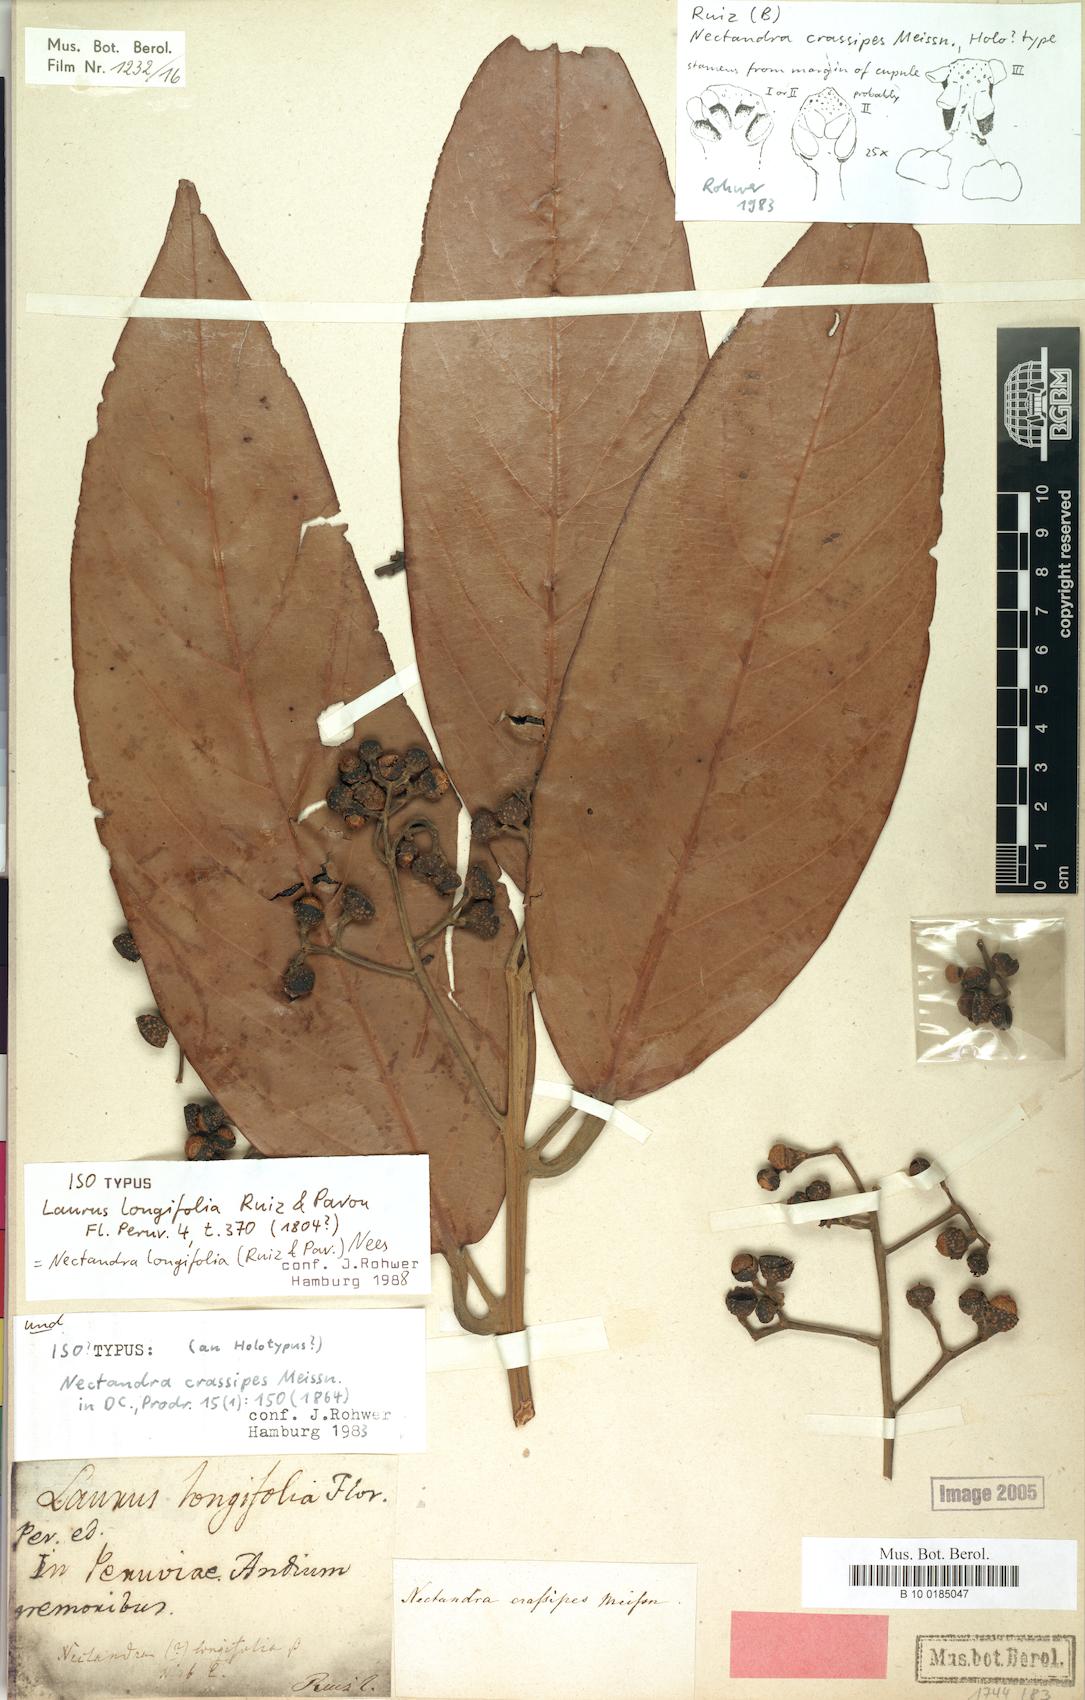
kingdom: Plantae
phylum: Tracheophyta
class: Magnoliopsida
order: Laurales
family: Lauraceae
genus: Nectandra
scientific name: Nectandra longifolia
